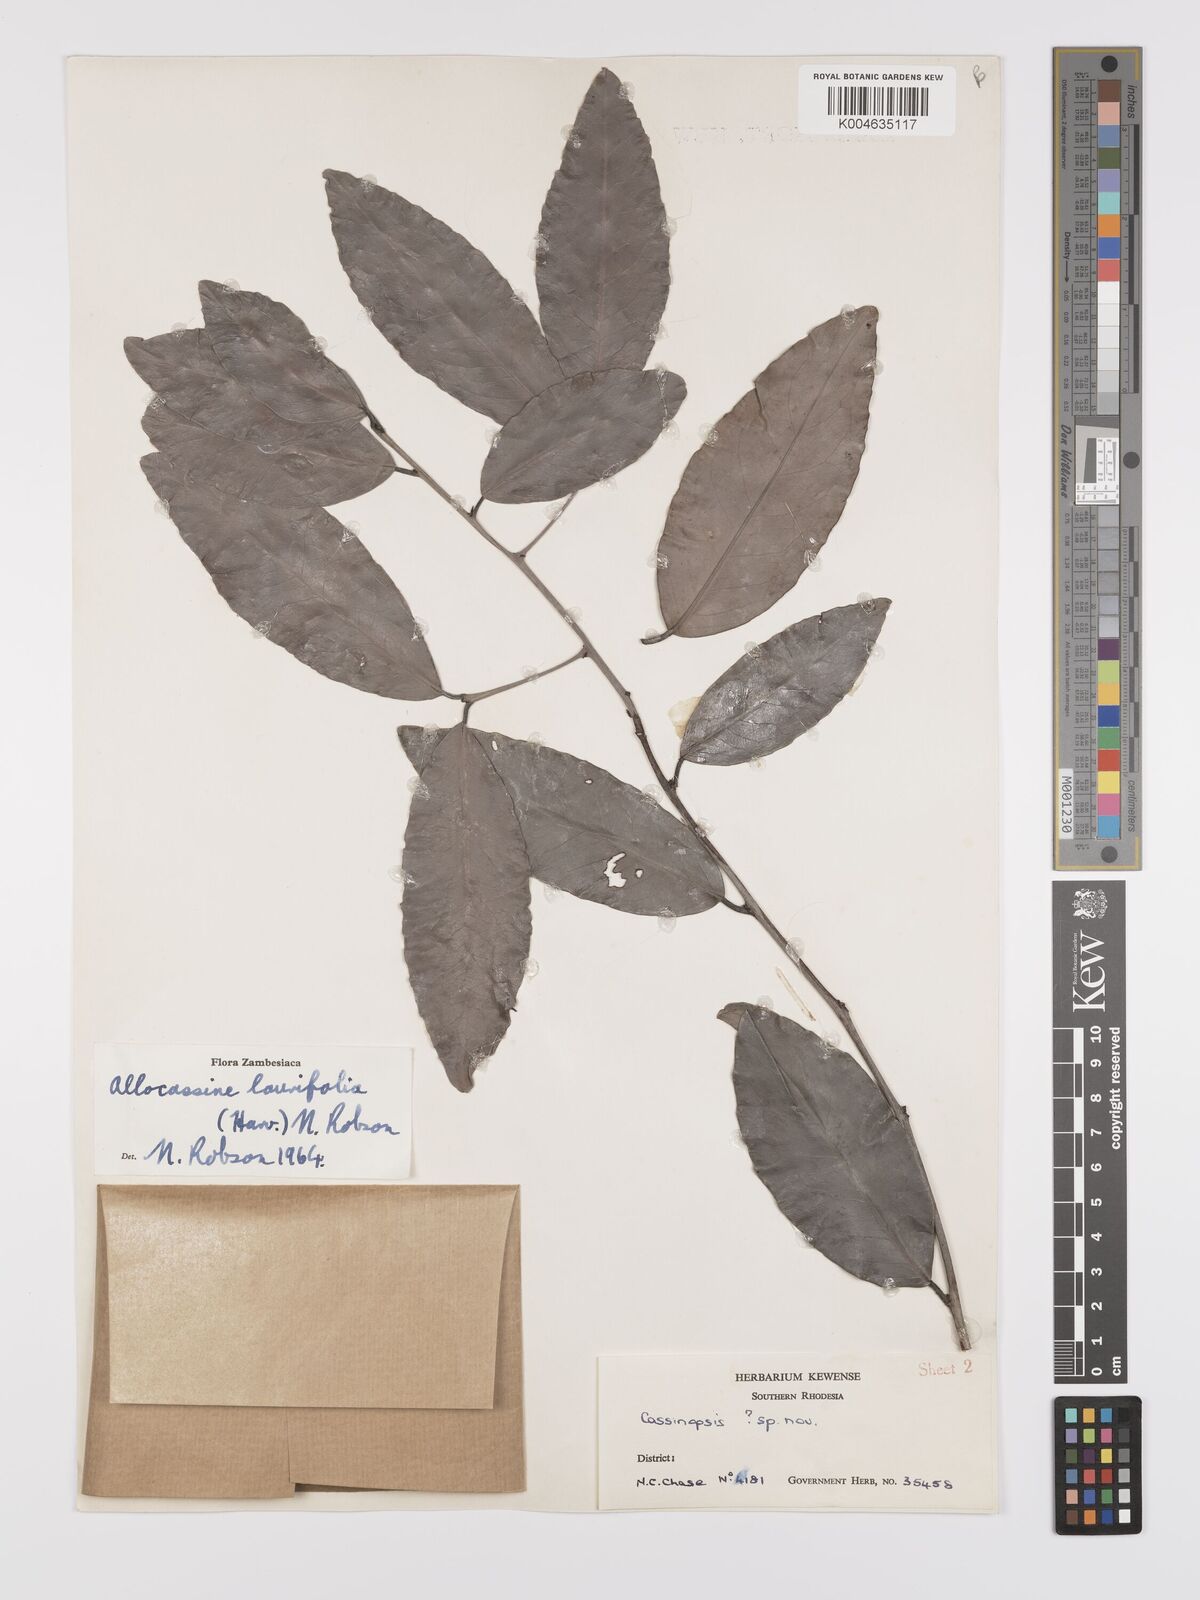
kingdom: Plantae
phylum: Tracheophyta
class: Magnoliopsida
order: Celastrales
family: Celastraceae
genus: Allocassine
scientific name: Allocassine laurifolia
